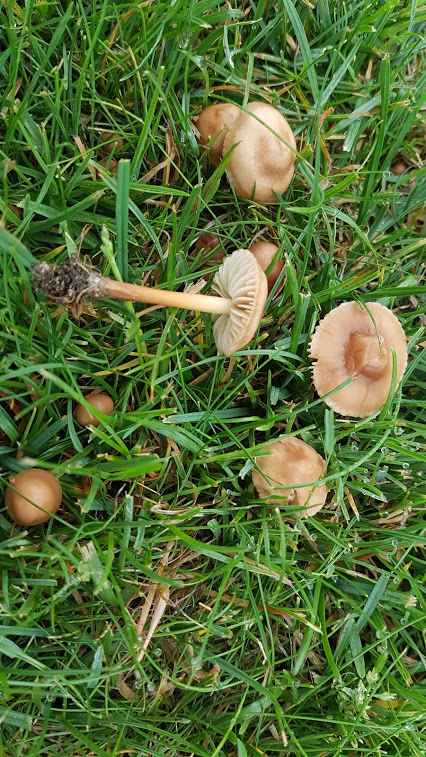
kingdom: Fungi
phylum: Basidiomycota
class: Agaricomycetes
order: Agaricales
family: Marasmiaceae
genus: Marasmius
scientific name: Marasmius oreades
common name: elledans-bruskhat
